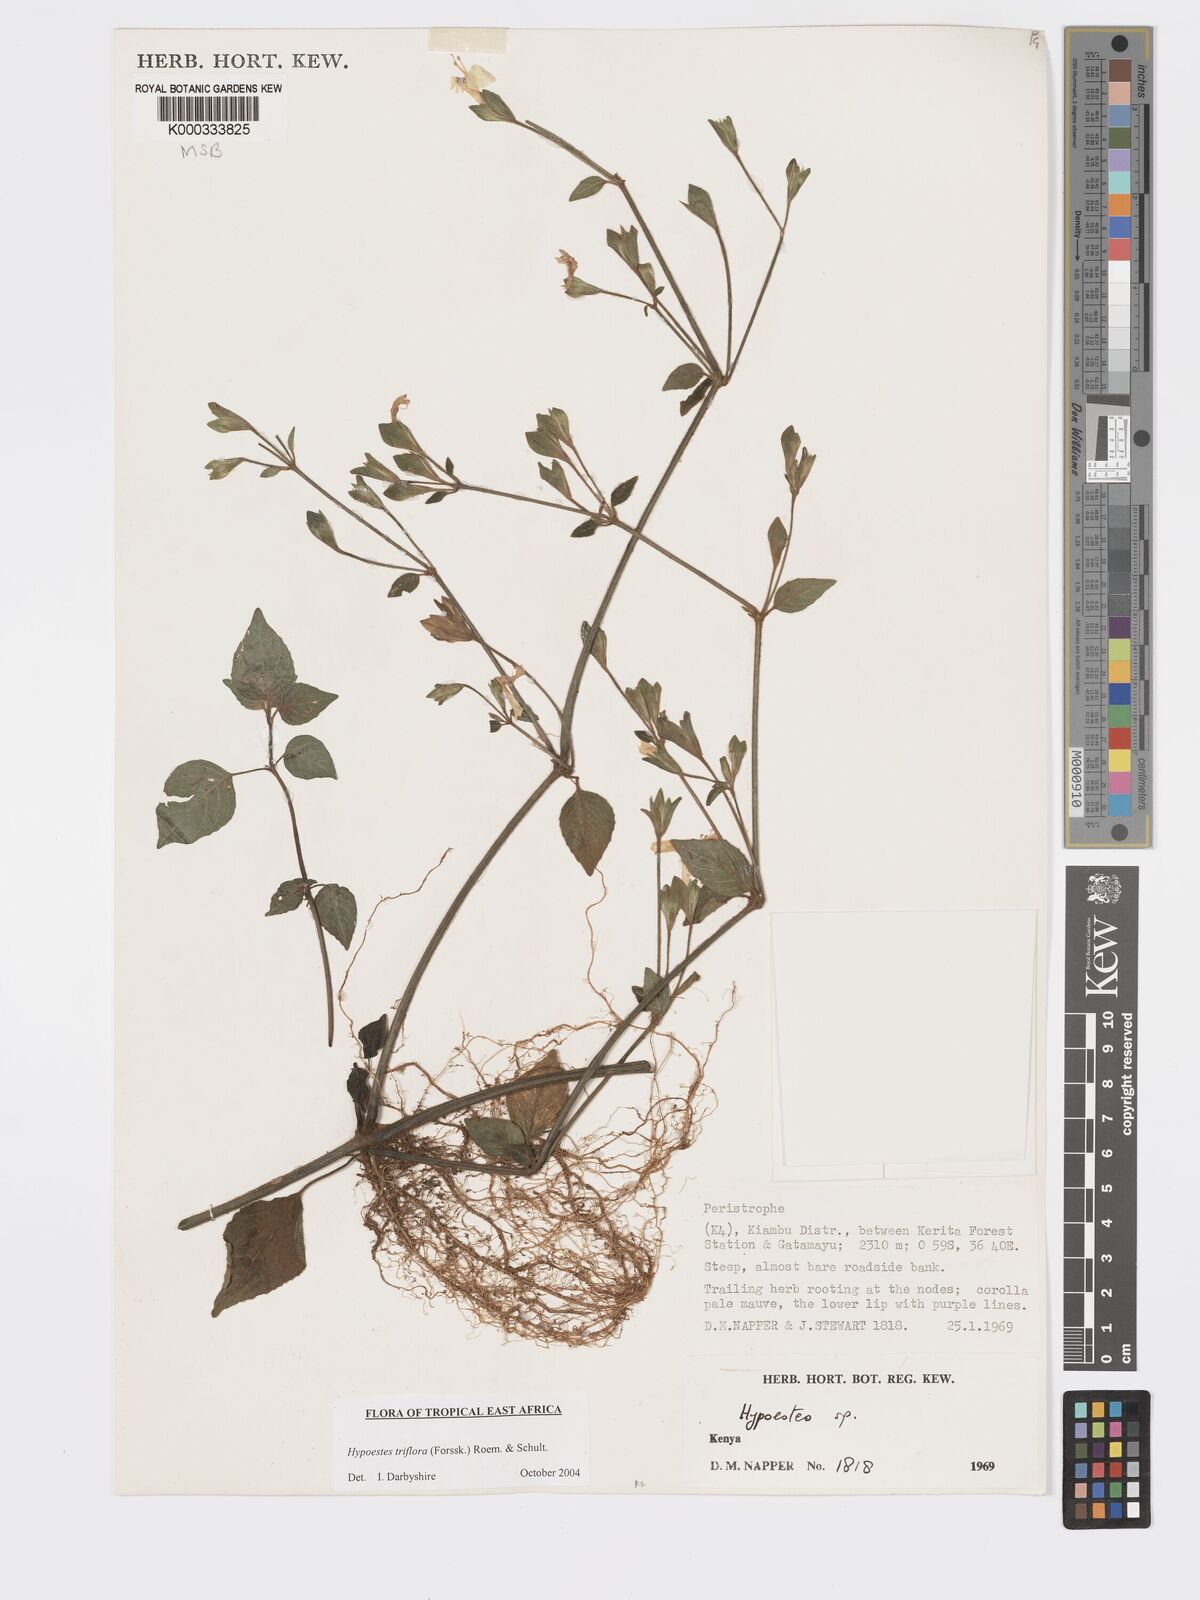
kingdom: Plantae
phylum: Tracheophyta
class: Magnoliopsida
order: Lamiales
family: Acanthaceae
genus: Hypoestes
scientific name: Hypoestes triflora
